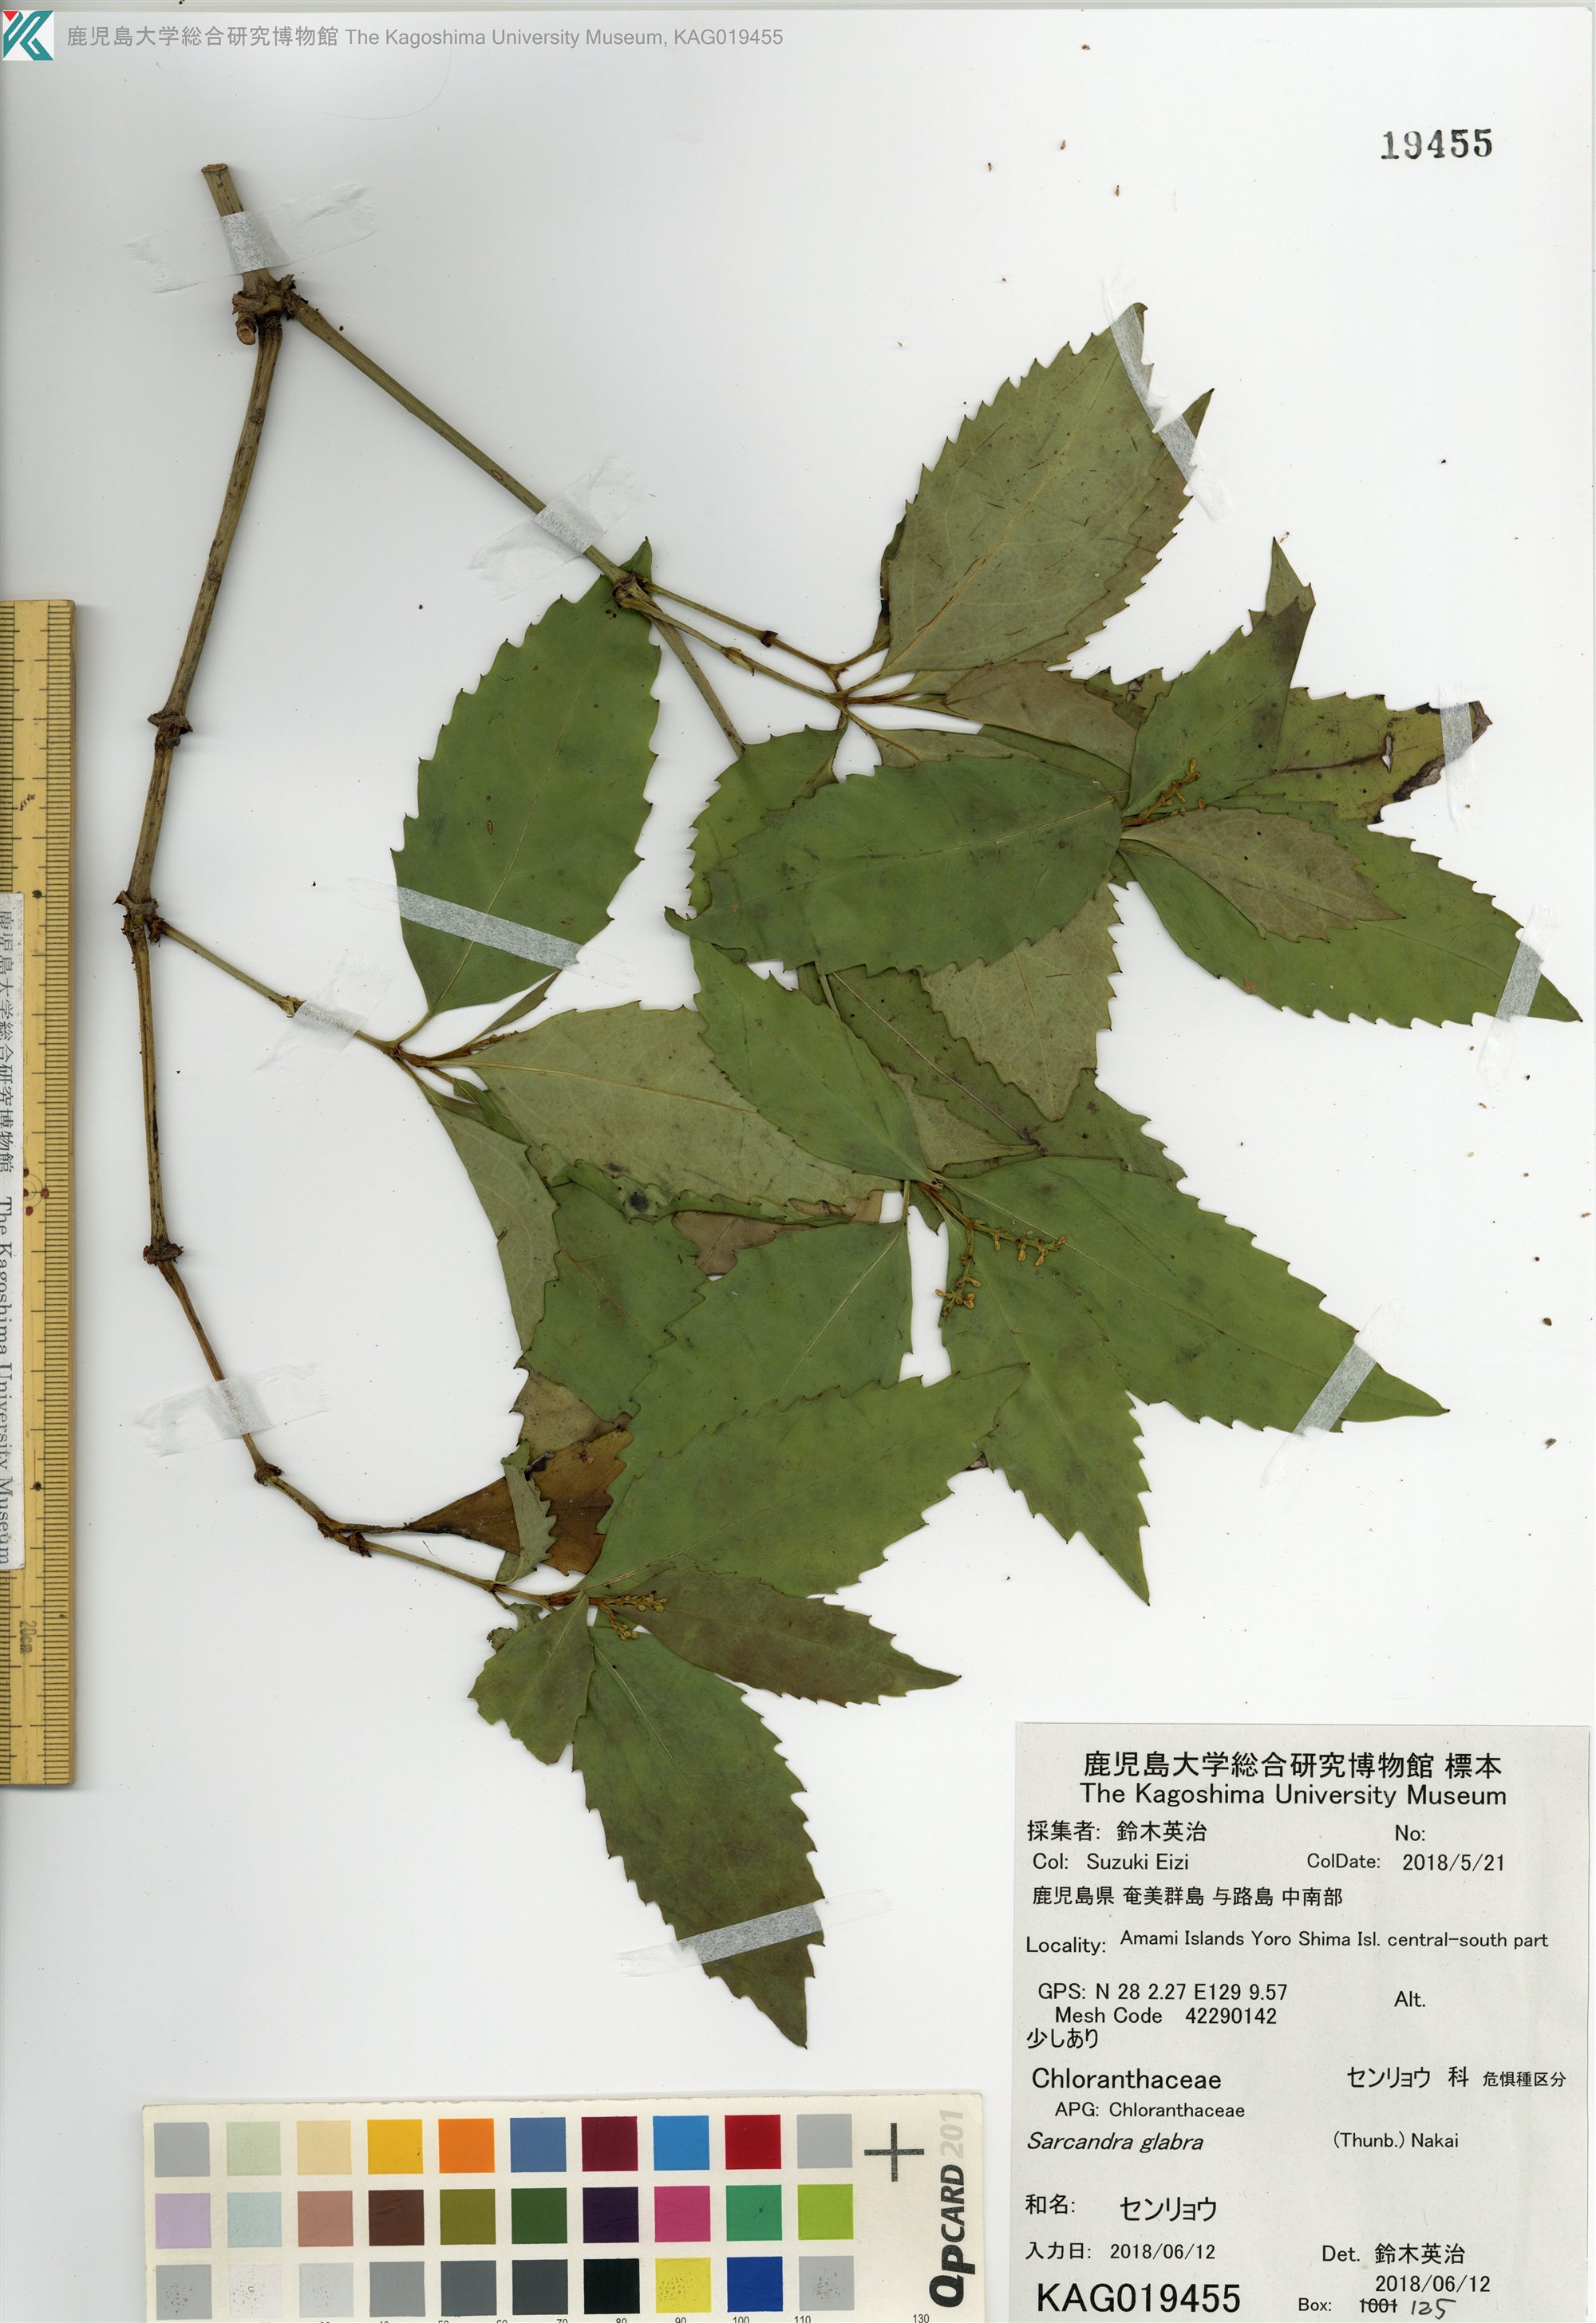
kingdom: Plantae
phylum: Tracheophyta
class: Magnoliopsida
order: Chloranthales
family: Chloranthaceae
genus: Sarcandra
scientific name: Sarcandra glabra
